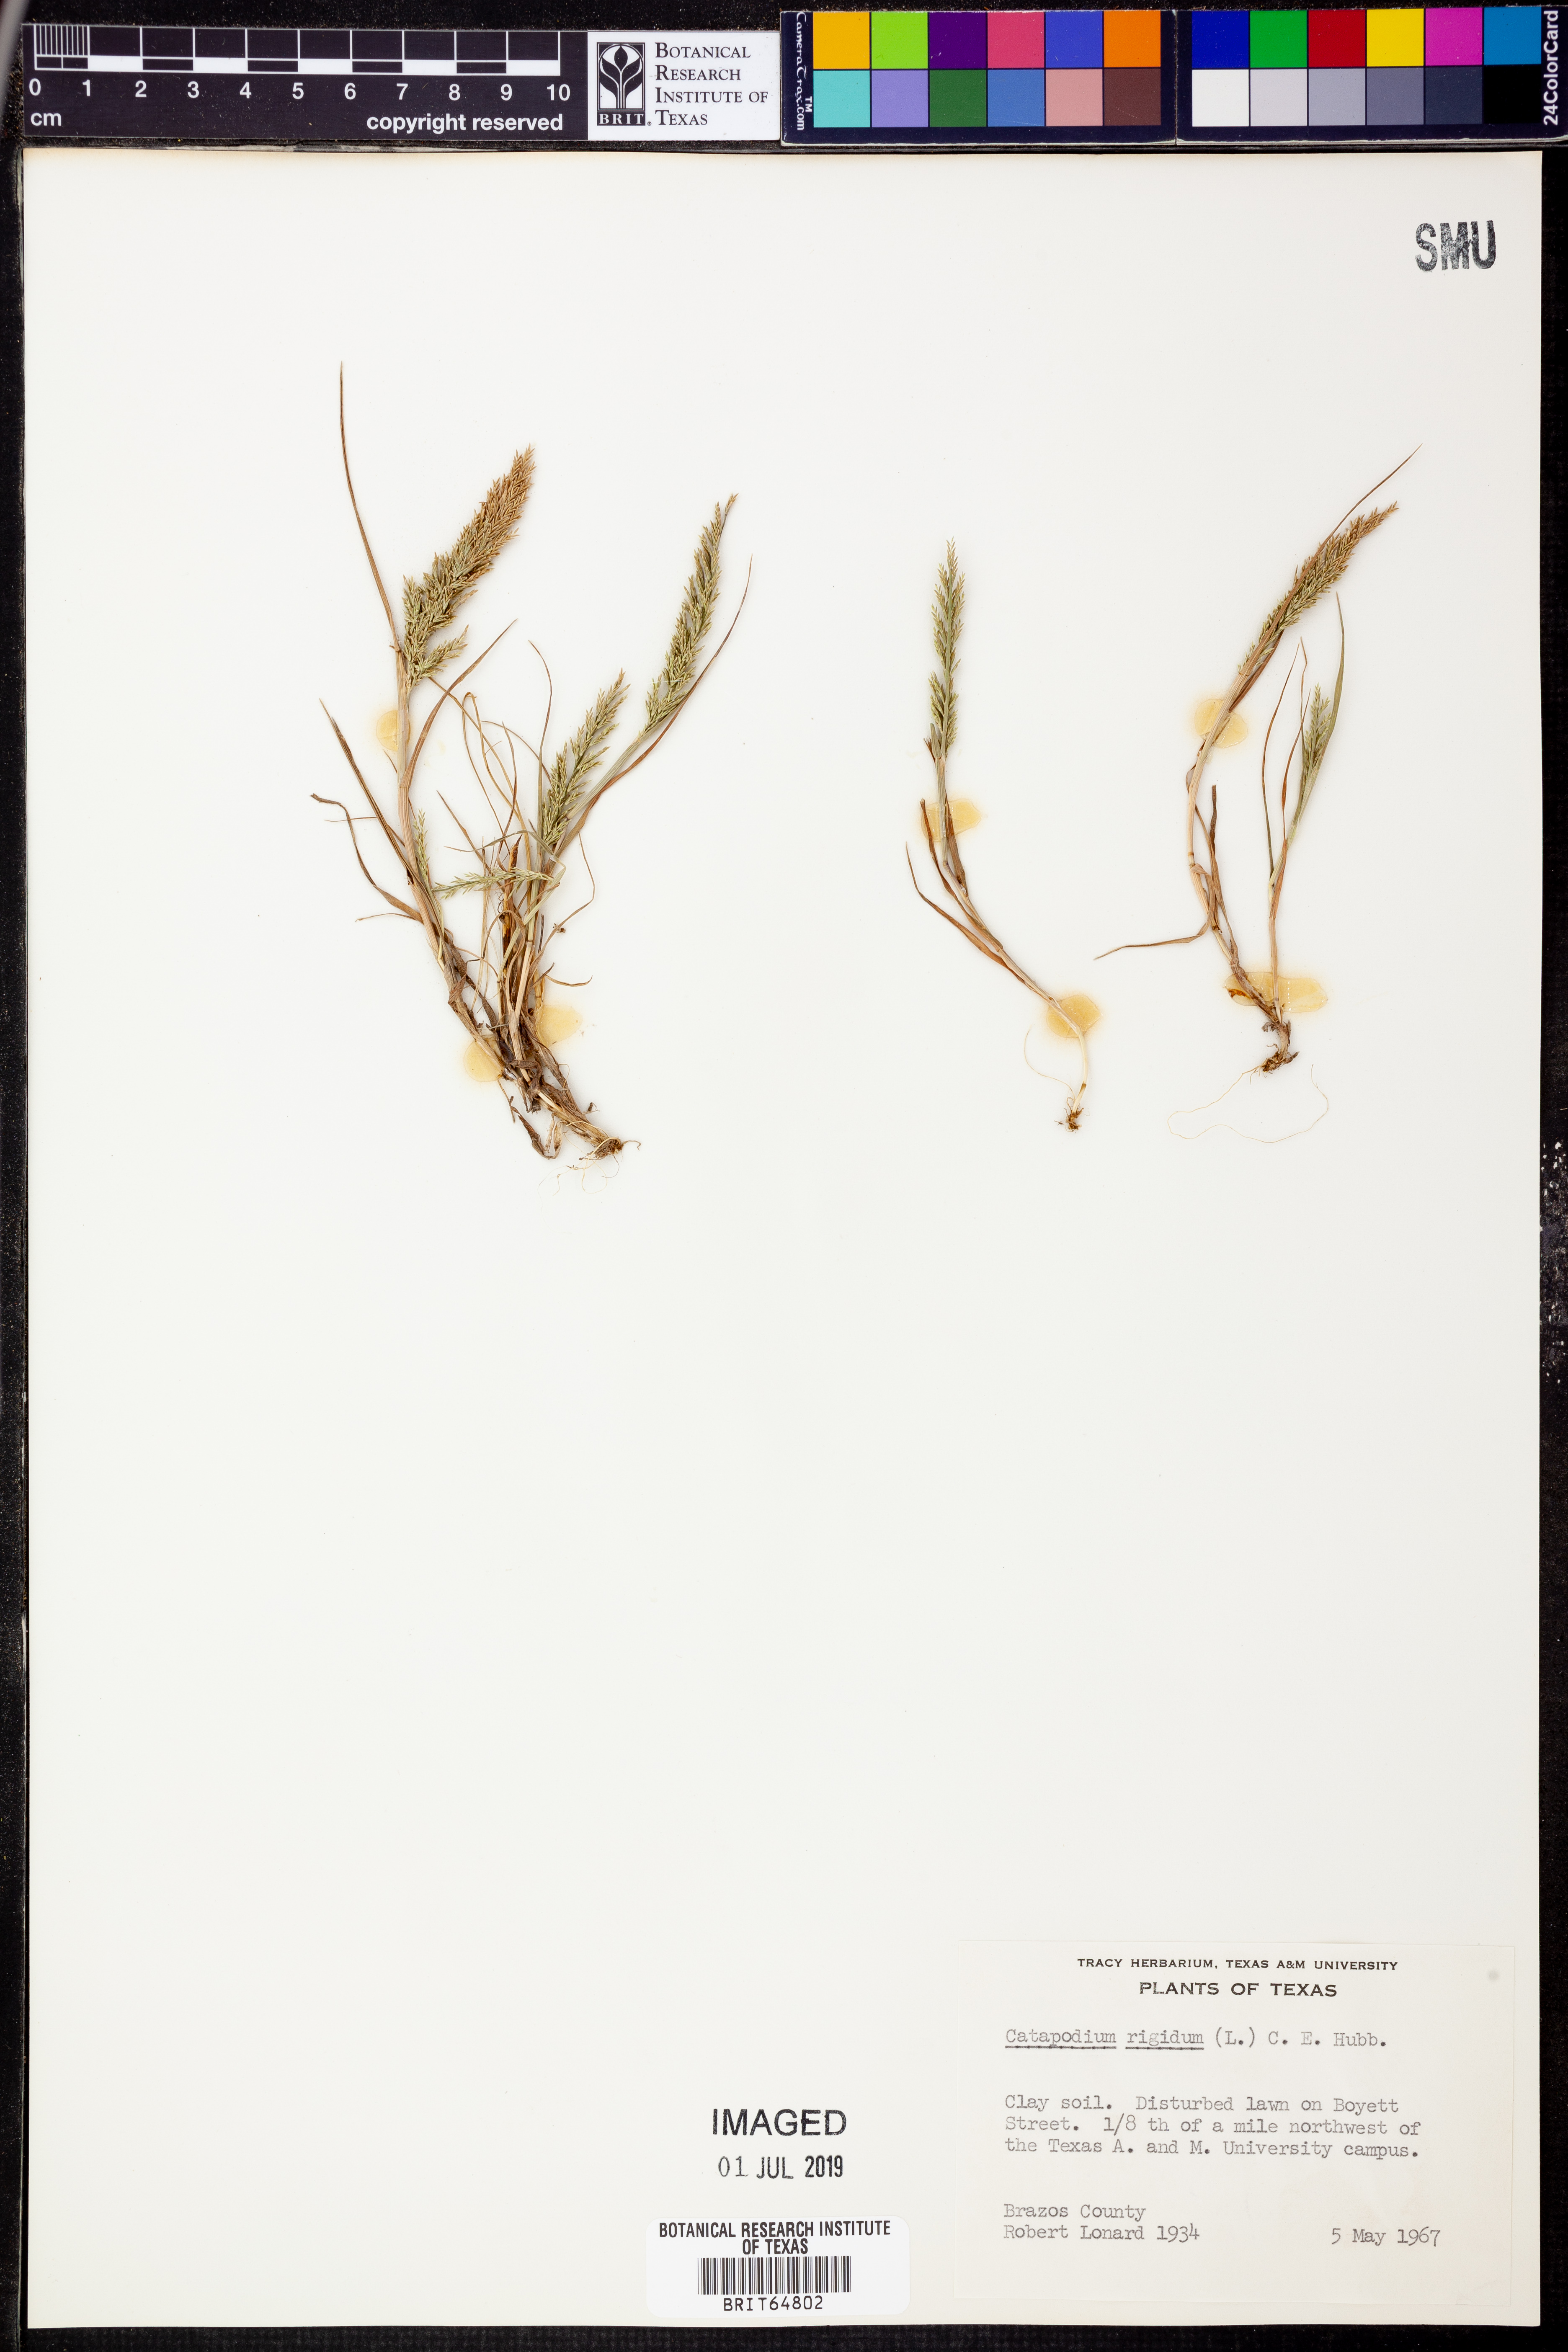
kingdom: Plantae
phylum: Tracheophyta
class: Liliopsida
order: Poales
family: Poaceae
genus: Catapodium
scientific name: Catapodium rigidum
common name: Fern-grass
